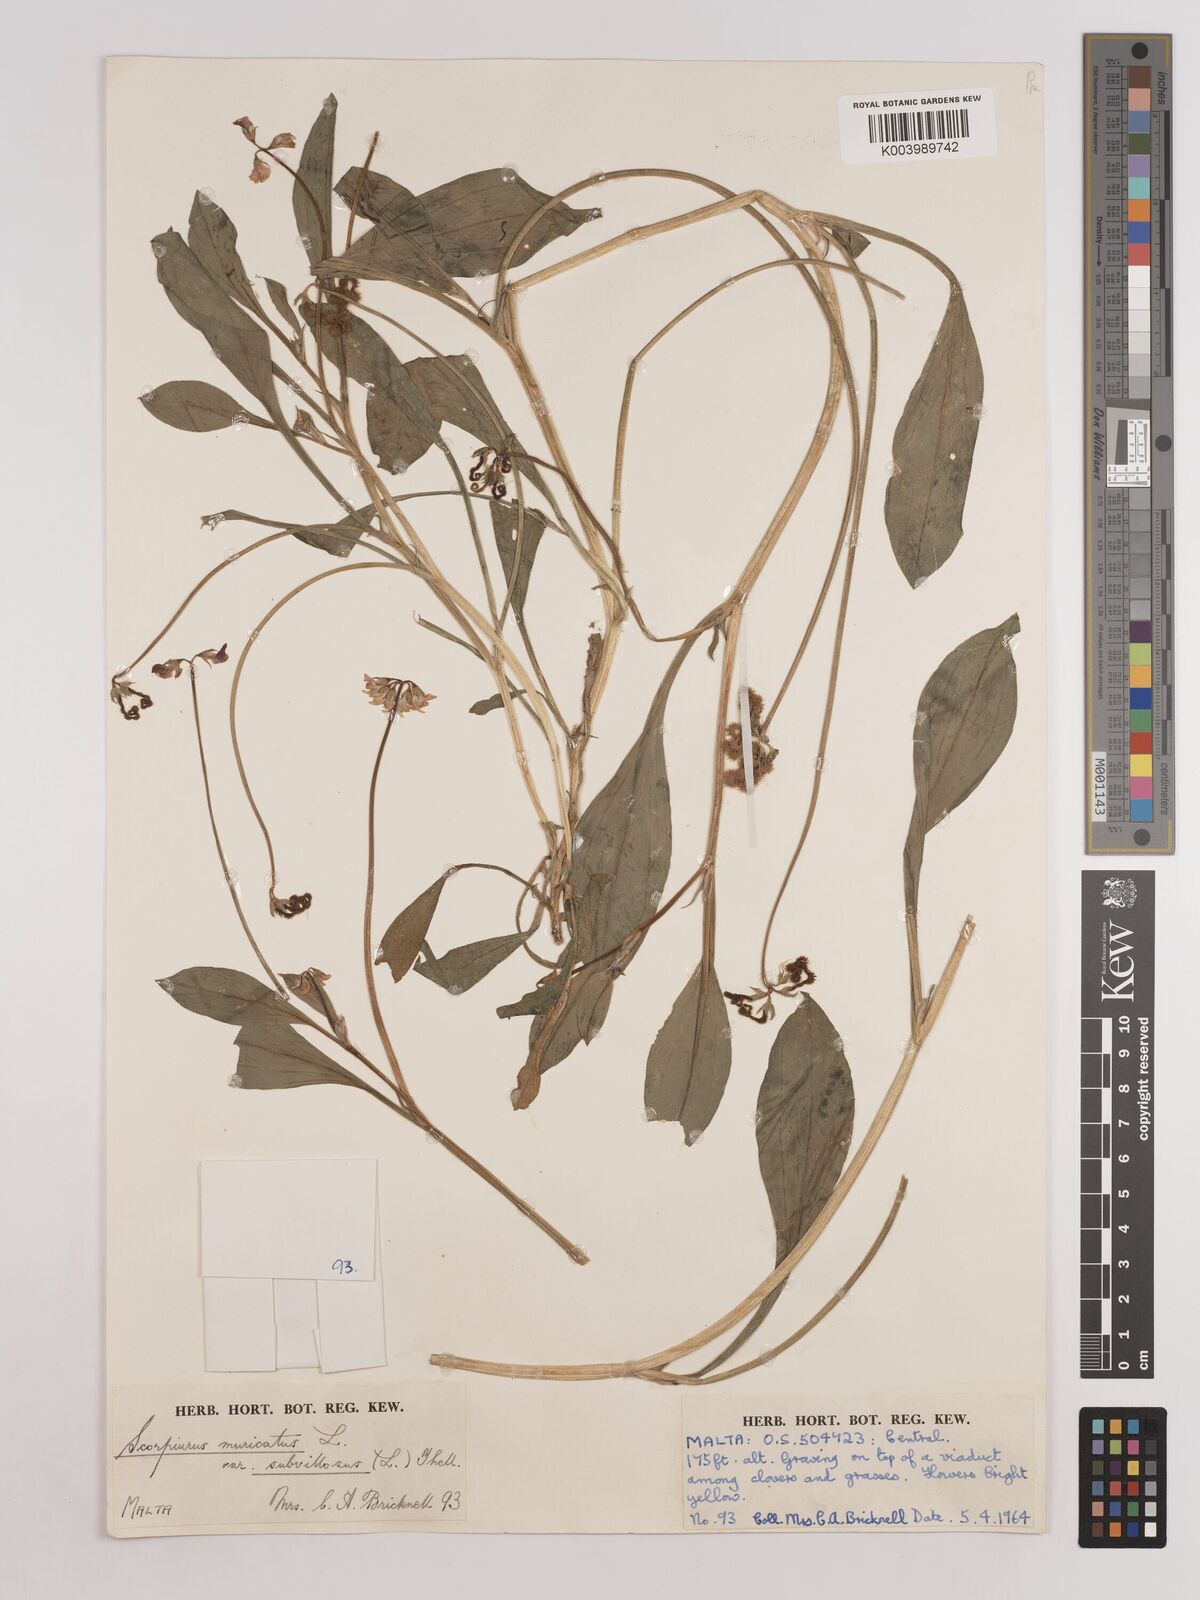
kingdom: Plantae
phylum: Tracheophyta
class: Magnoliopsida
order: Fabales
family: Fabaceae
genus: Scorpiurus
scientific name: Scorpiurus muricatus
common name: Caterpillar-plant
